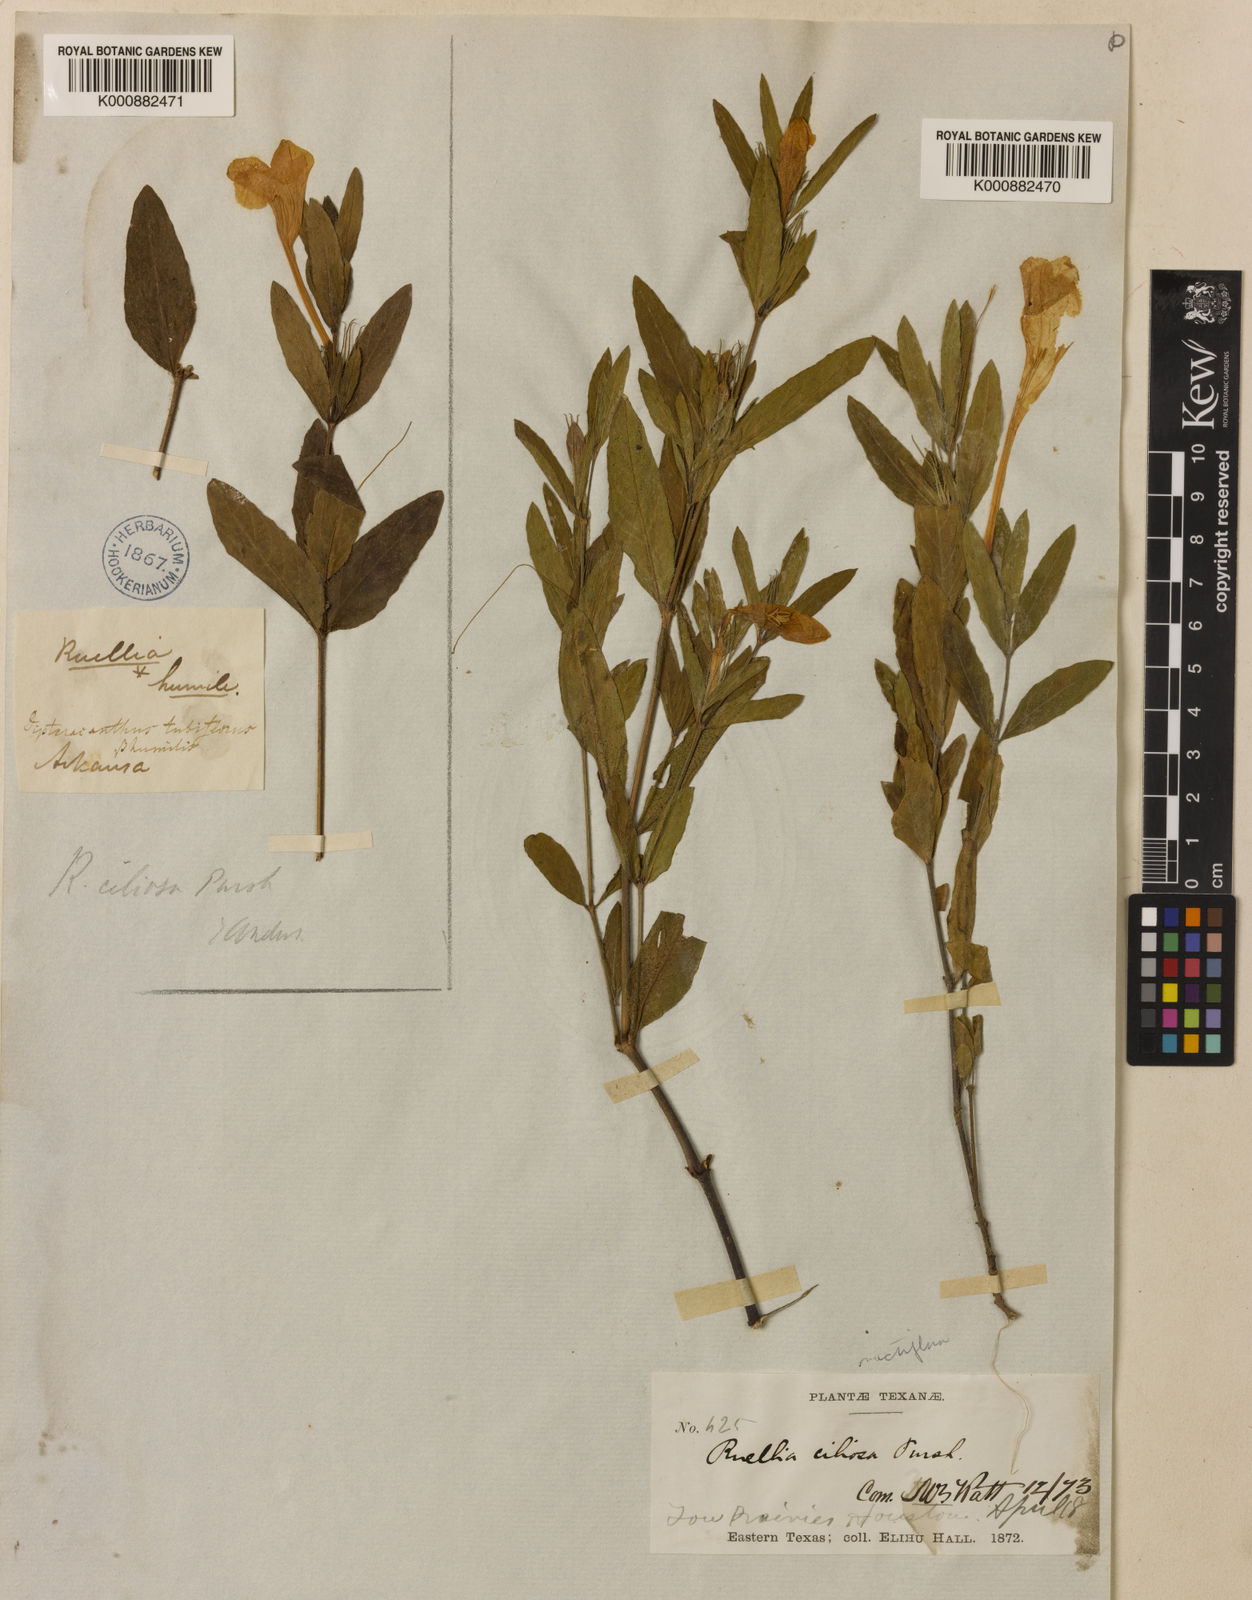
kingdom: Plantae
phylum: Tracheophyta
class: Magnoliopsida
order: Lamiales
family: Acanthaceae
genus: Ruellia
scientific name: Ruellia humilis
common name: Fringe-leaf ruellia
